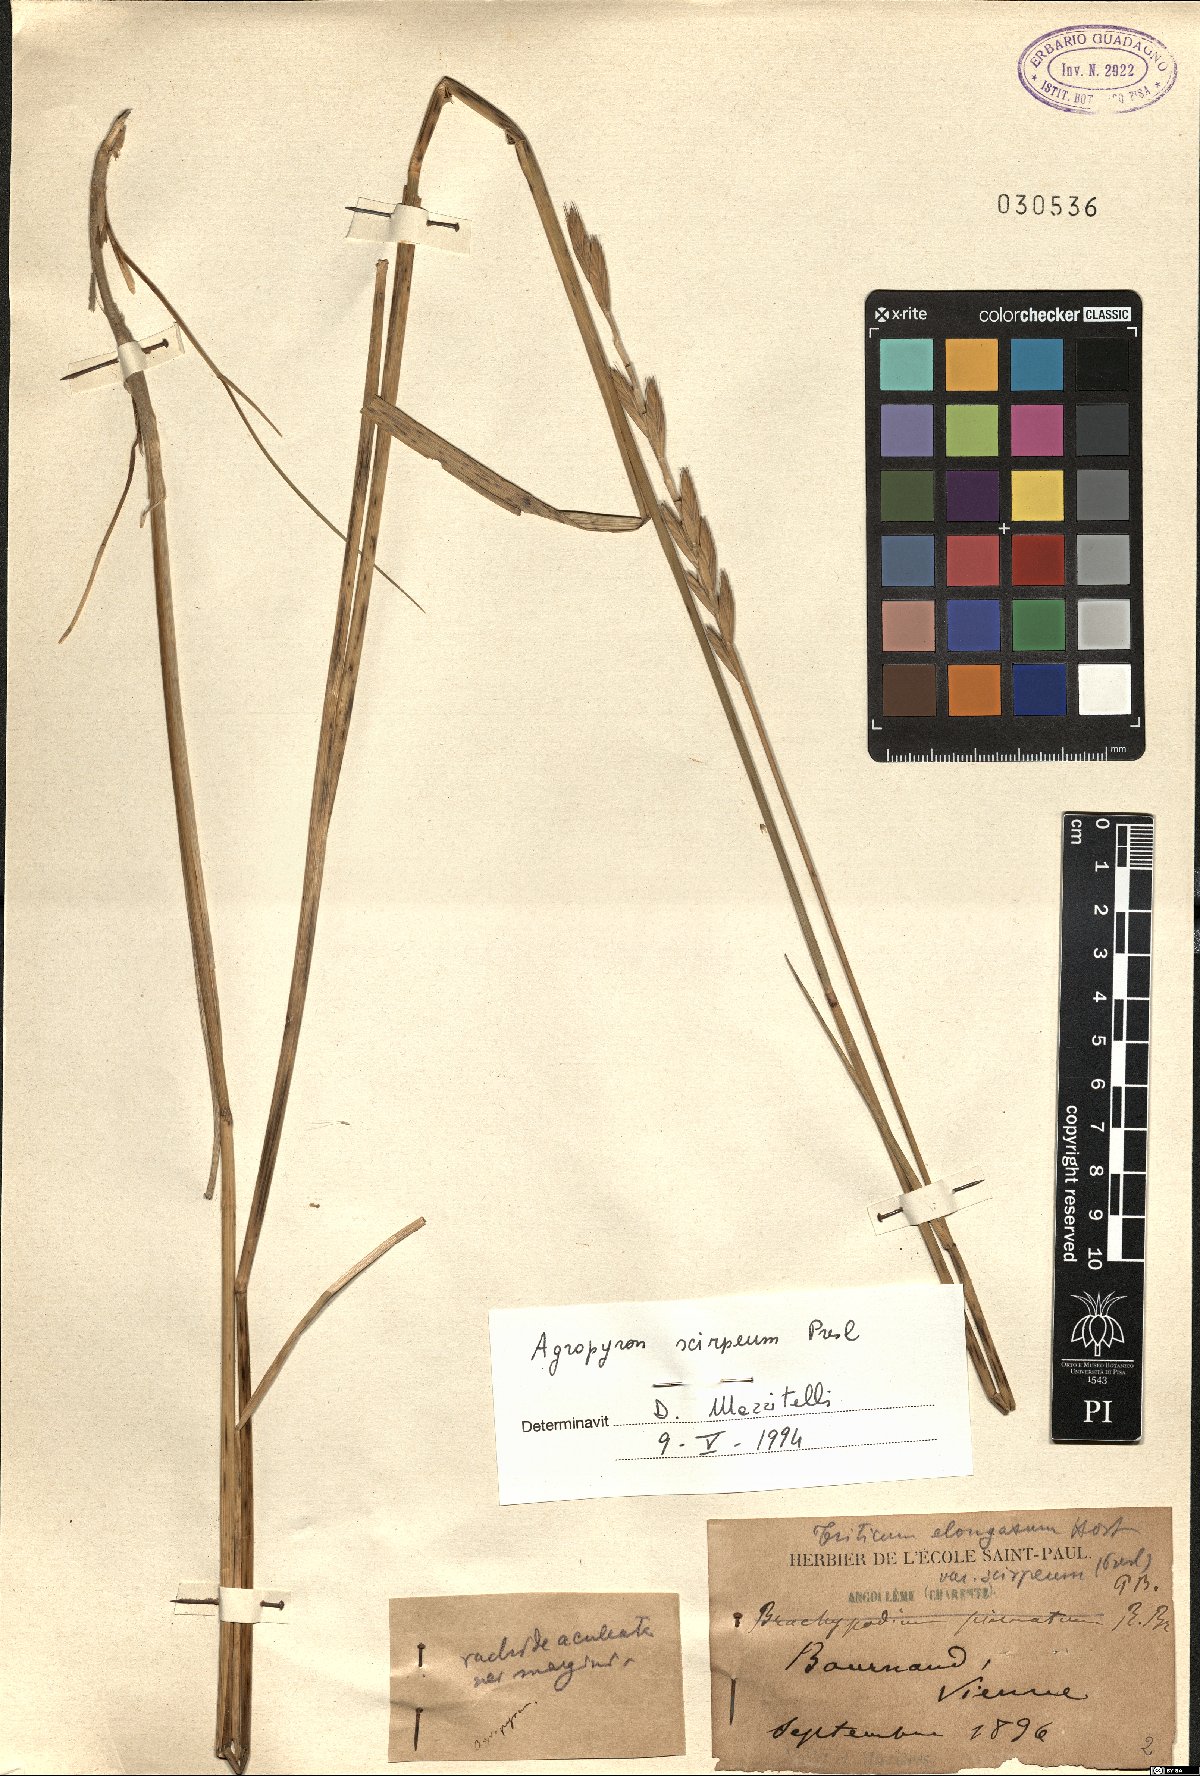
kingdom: Plantae
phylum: Tracheophyta
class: Liliopsida
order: Poales
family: Poaceae
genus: Thinopyrum
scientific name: Thinopyrum elongatum
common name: Tall wheatgrass
